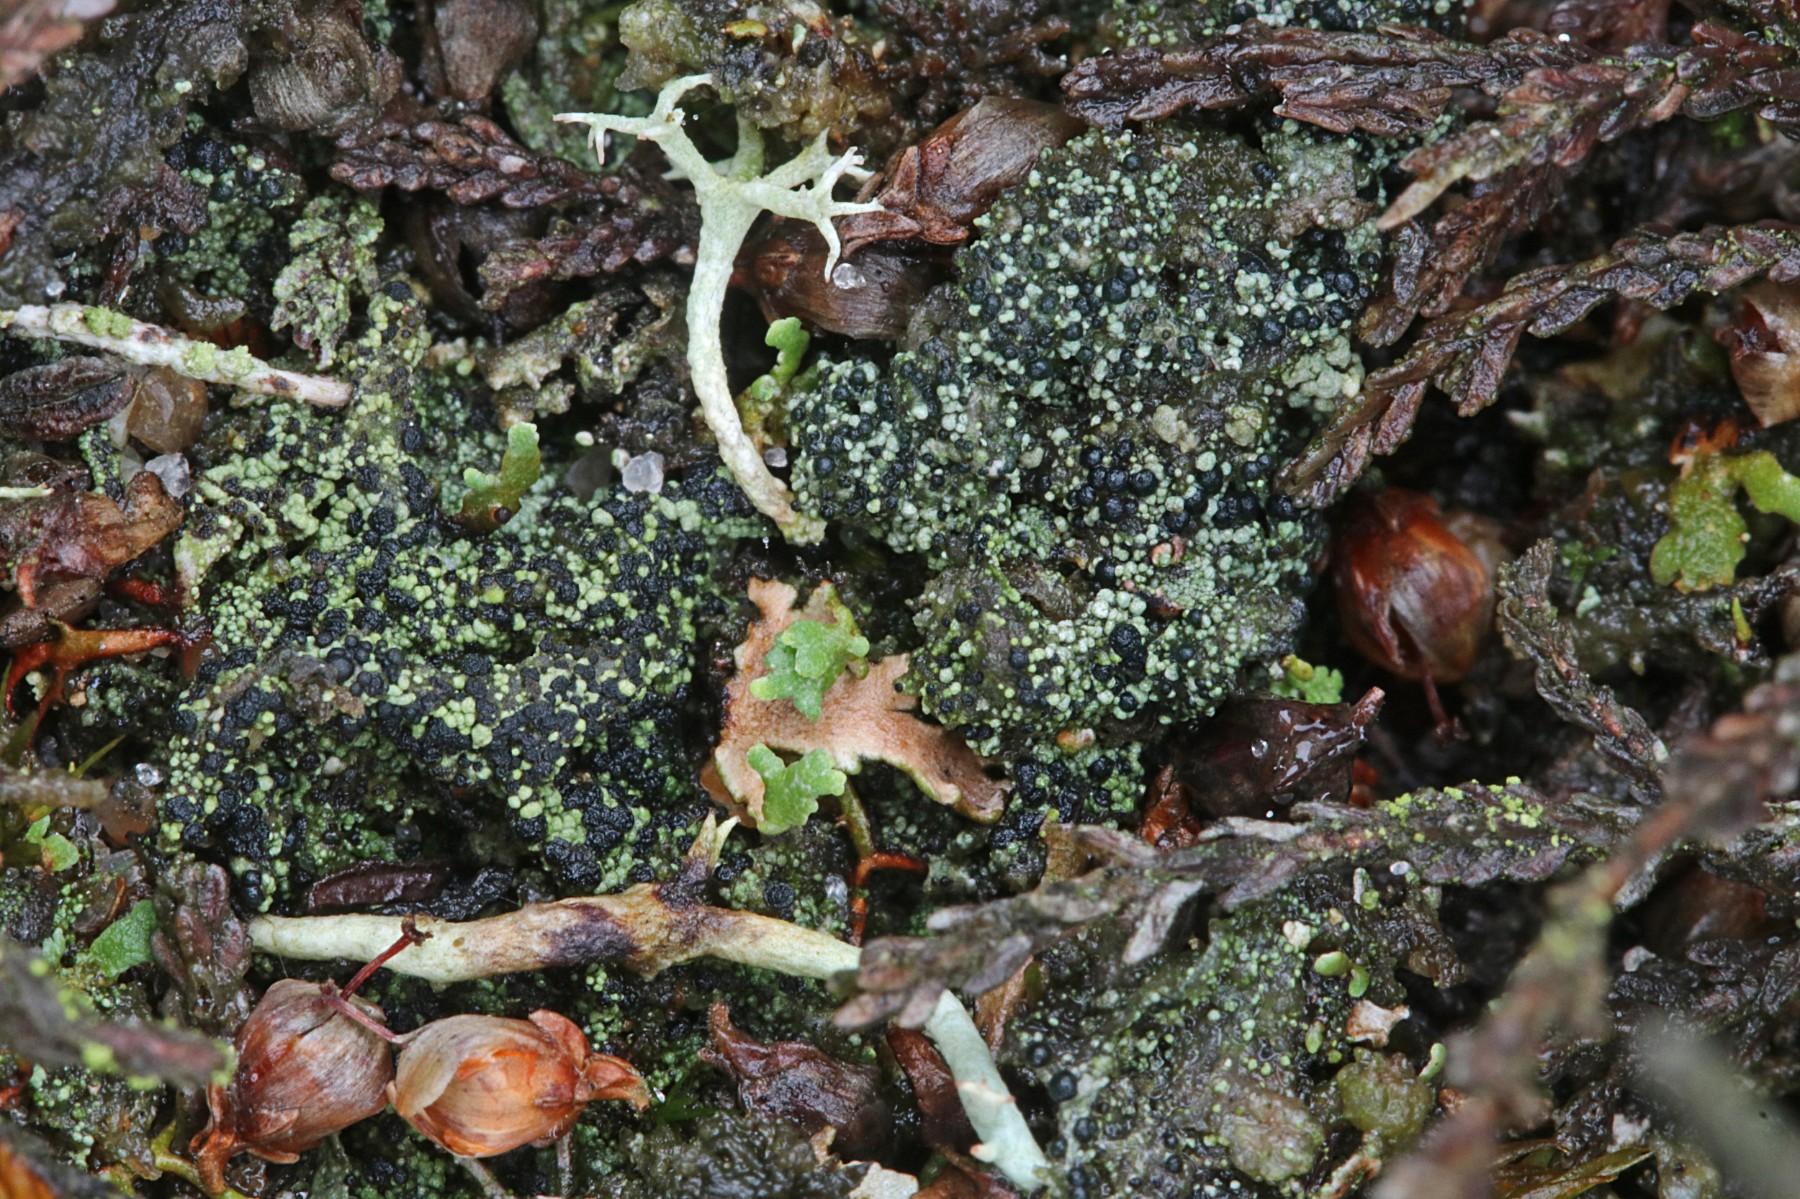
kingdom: Fungi
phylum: Ascomycota
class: Lecanoromycetes
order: Lecanorales
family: Byssolomataceae
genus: Micarea
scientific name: Micarea lignaria
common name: tørve-knaplav
